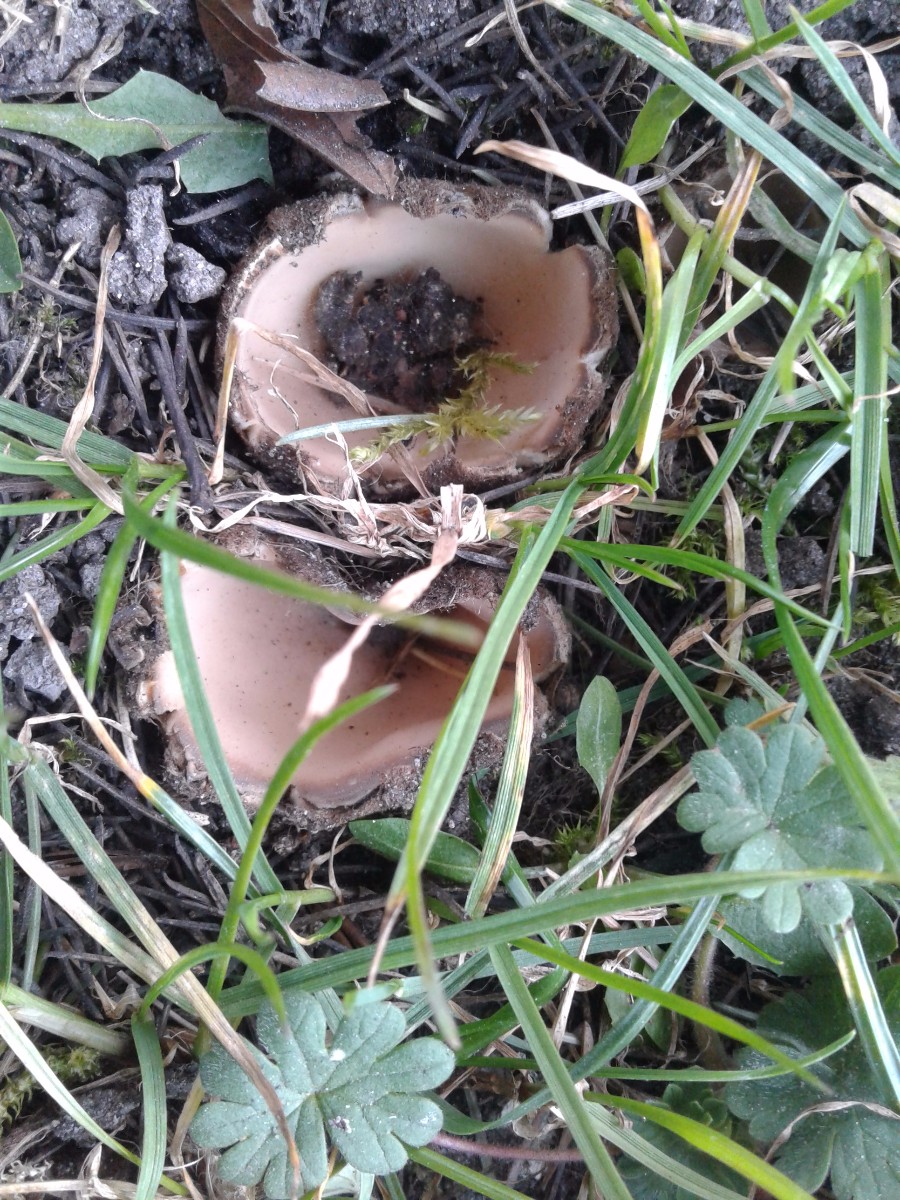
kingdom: Fungi
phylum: Ascomycota
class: Pezizomycetes
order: Pezizales
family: Pyronemataceae
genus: Geopora
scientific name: Geopora sumneriana
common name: vår-jordbæger
